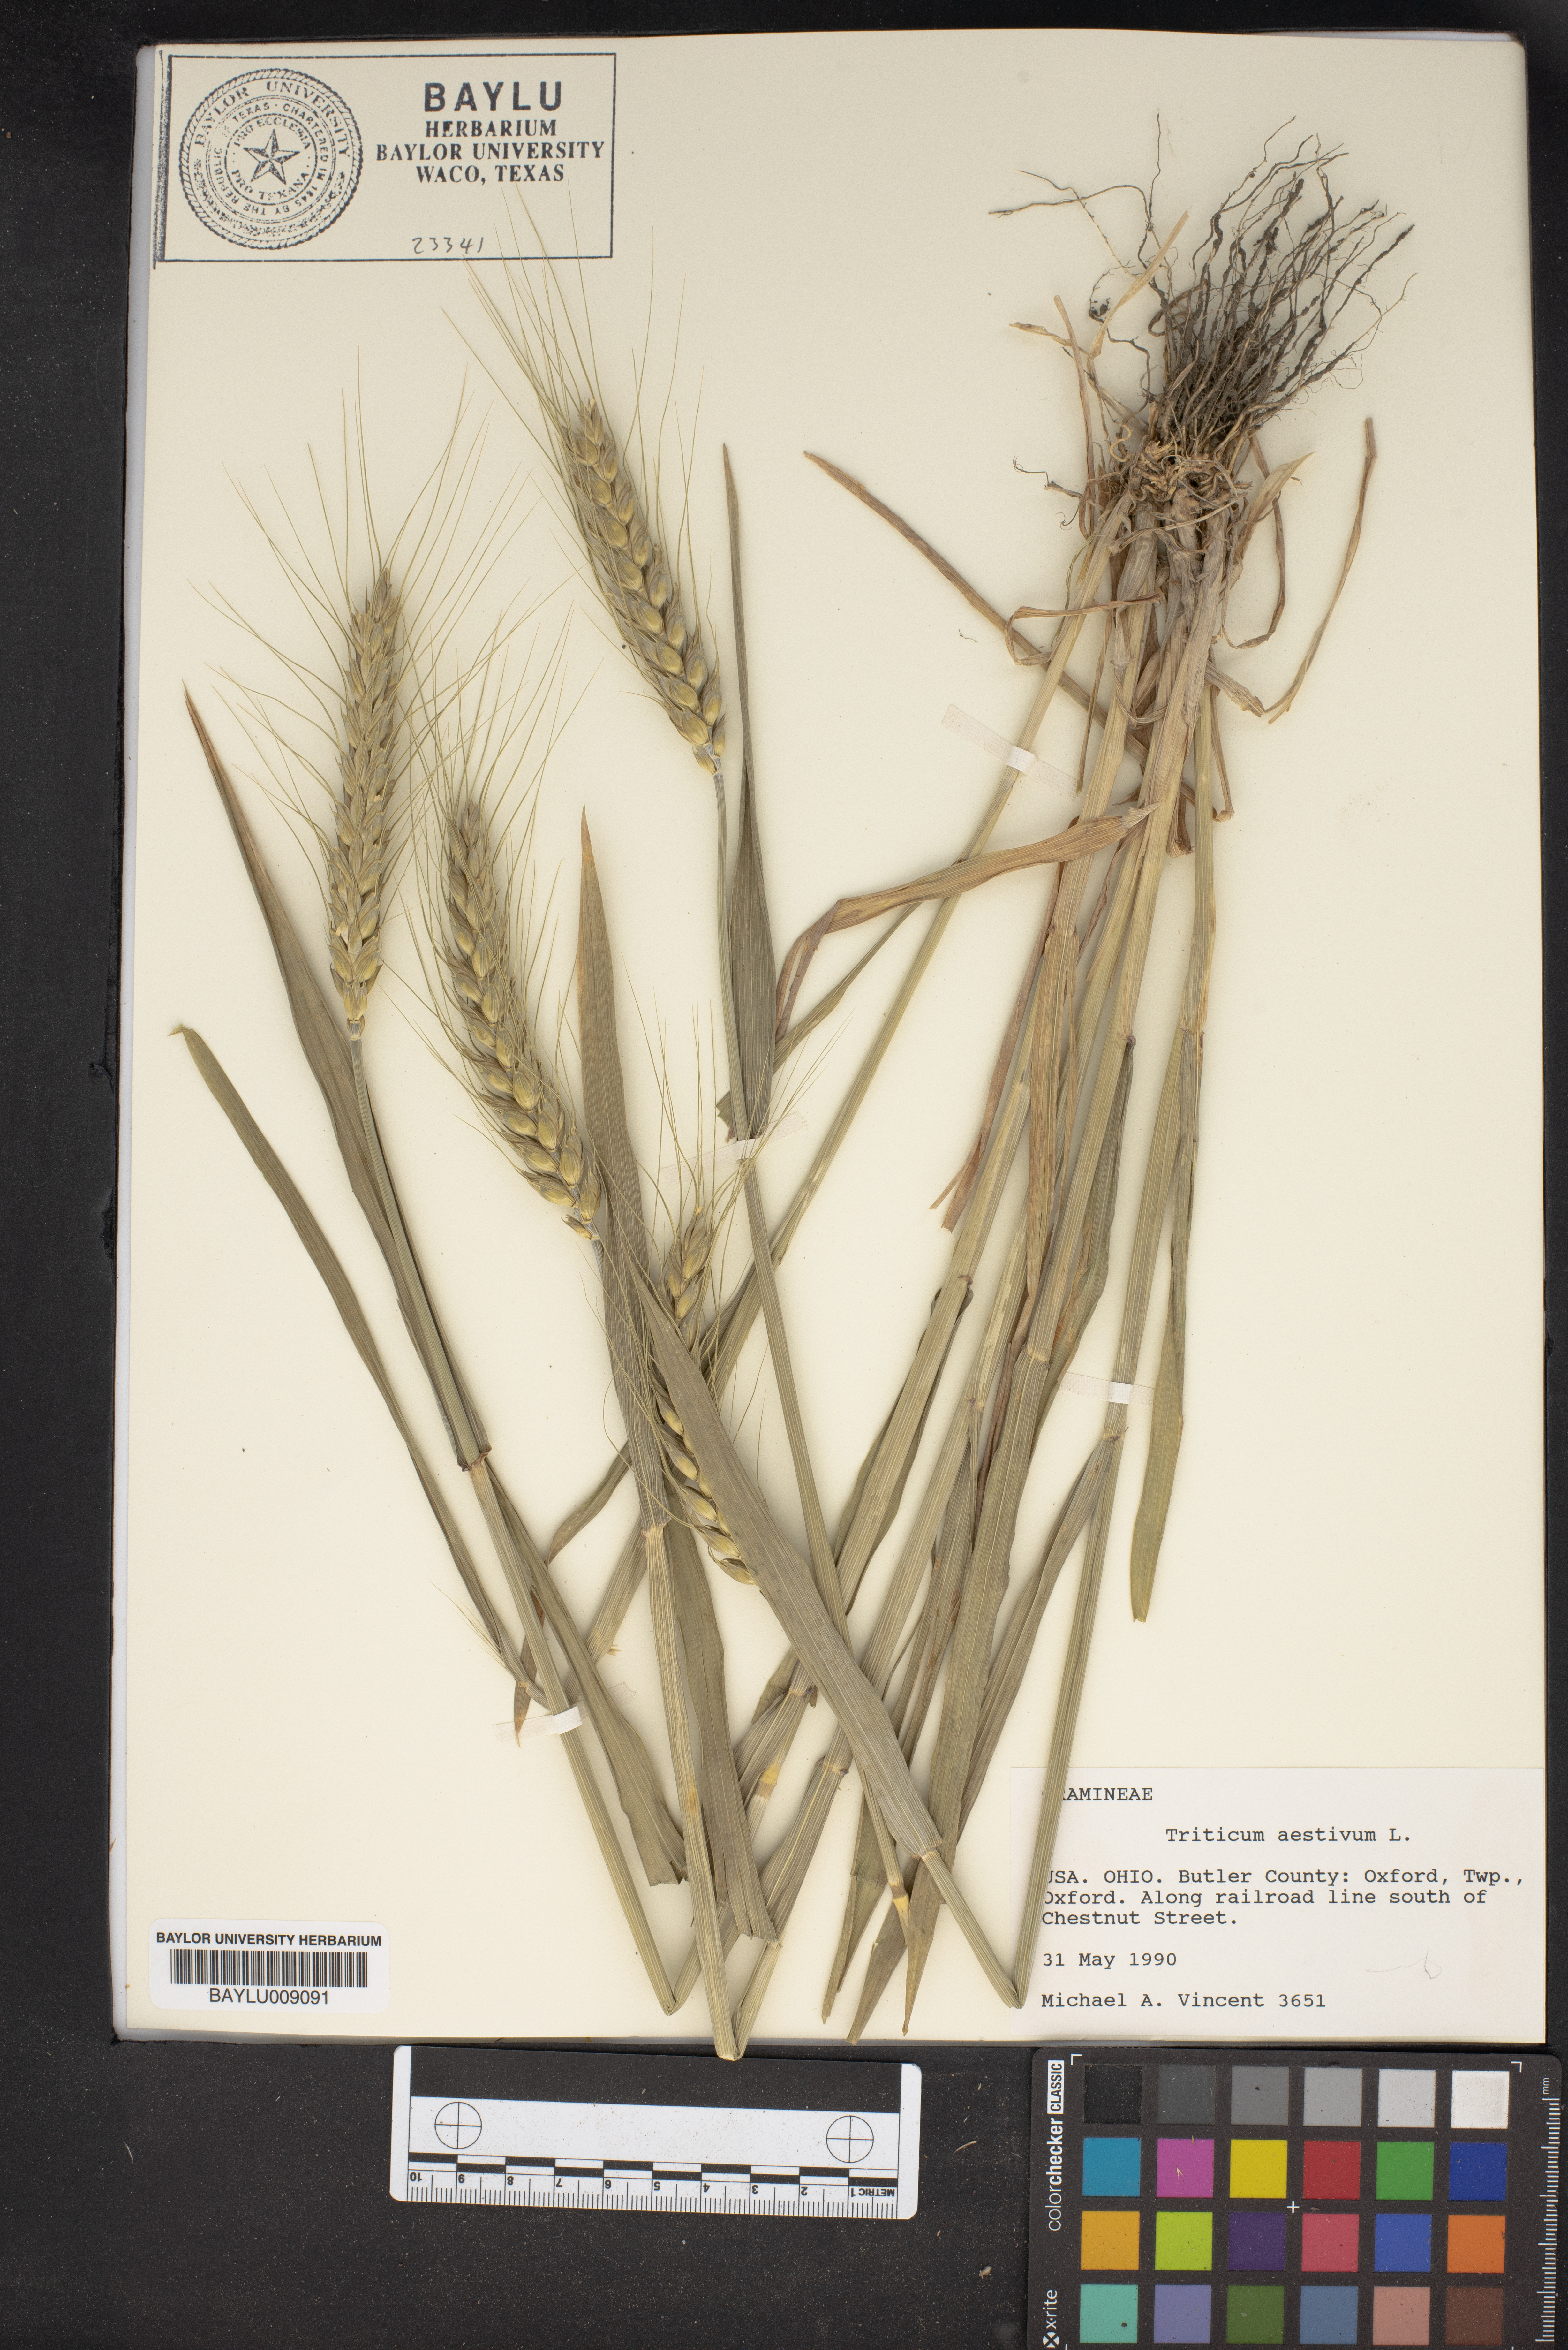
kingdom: Plantae
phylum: Tracheophyta
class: Liliopsida
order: Poales
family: Poaceae
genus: Triticum
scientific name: Triticum aestivum
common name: Common wheat
